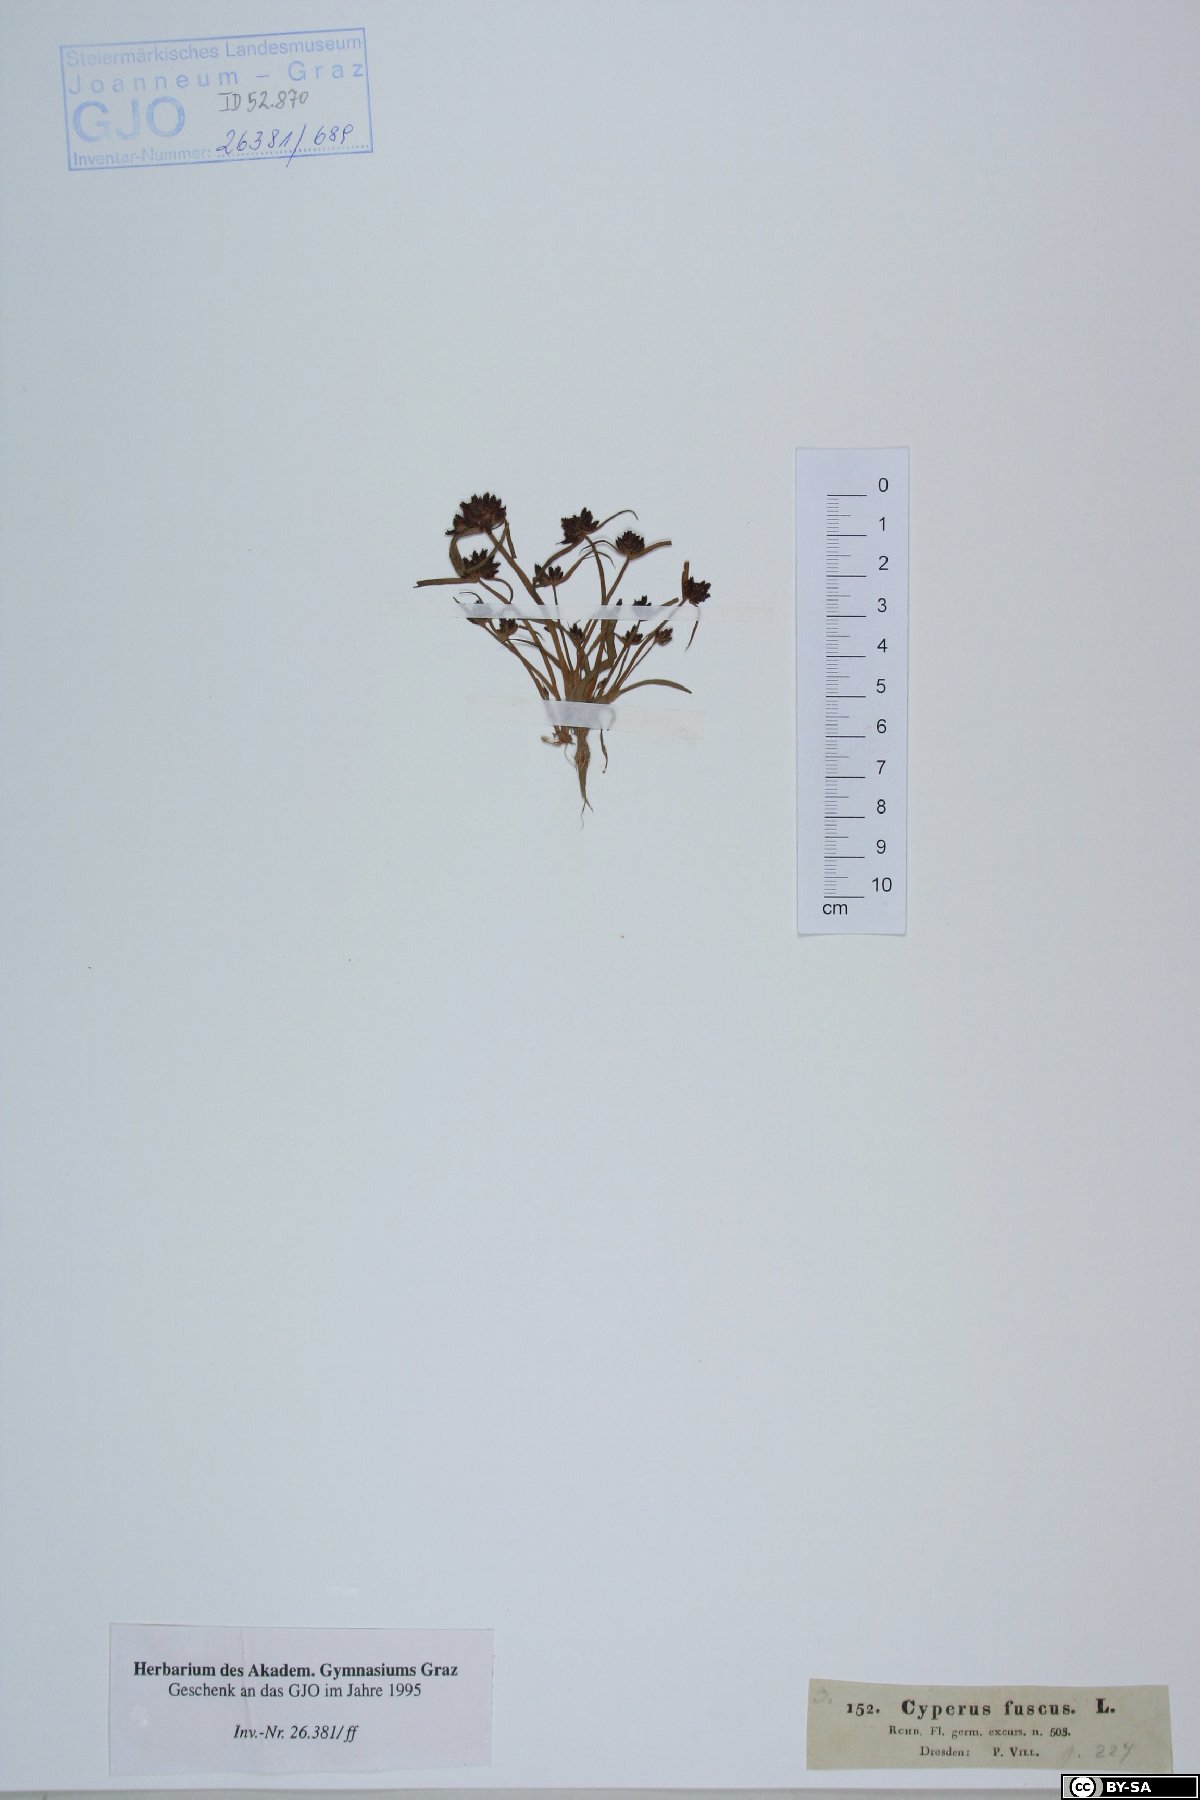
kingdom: Plantae
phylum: Tracheophyta
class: Liliopsida
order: Poales
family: Cyperaceae
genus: Cyperus
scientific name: Cyperus fuscus
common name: Brown galingale
